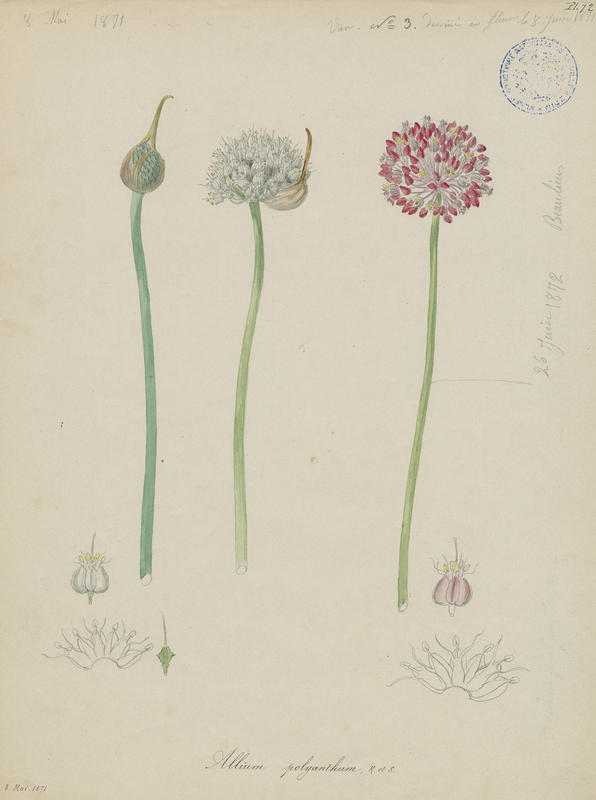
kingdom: Plantae
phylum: Tracheophyta
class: Liliopsida
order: Asparagales
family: Amaryllidaceae
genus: Allium
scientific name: Allium ampeloprasum
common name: Wild leek
